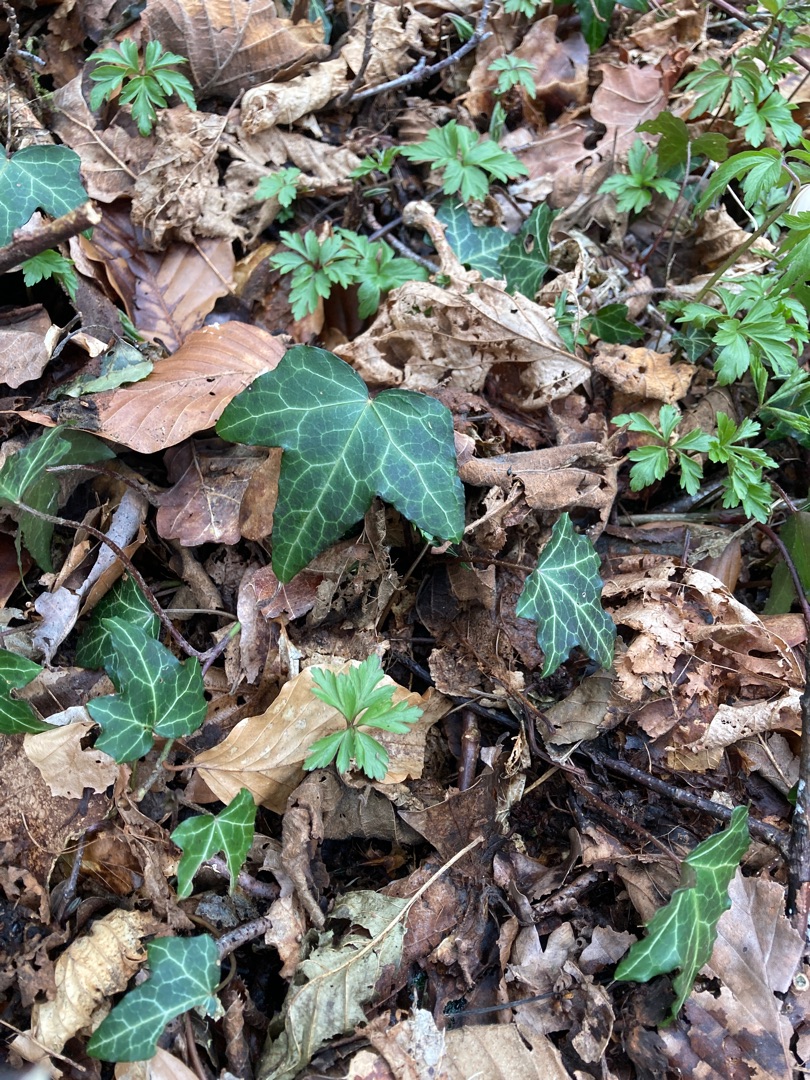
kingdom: Plantae
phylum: Tracheophyta
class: Magnoliopsida
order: Apiales
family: Araliaceae
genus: Hedera
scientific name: Hedera helix
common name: Vedbend
